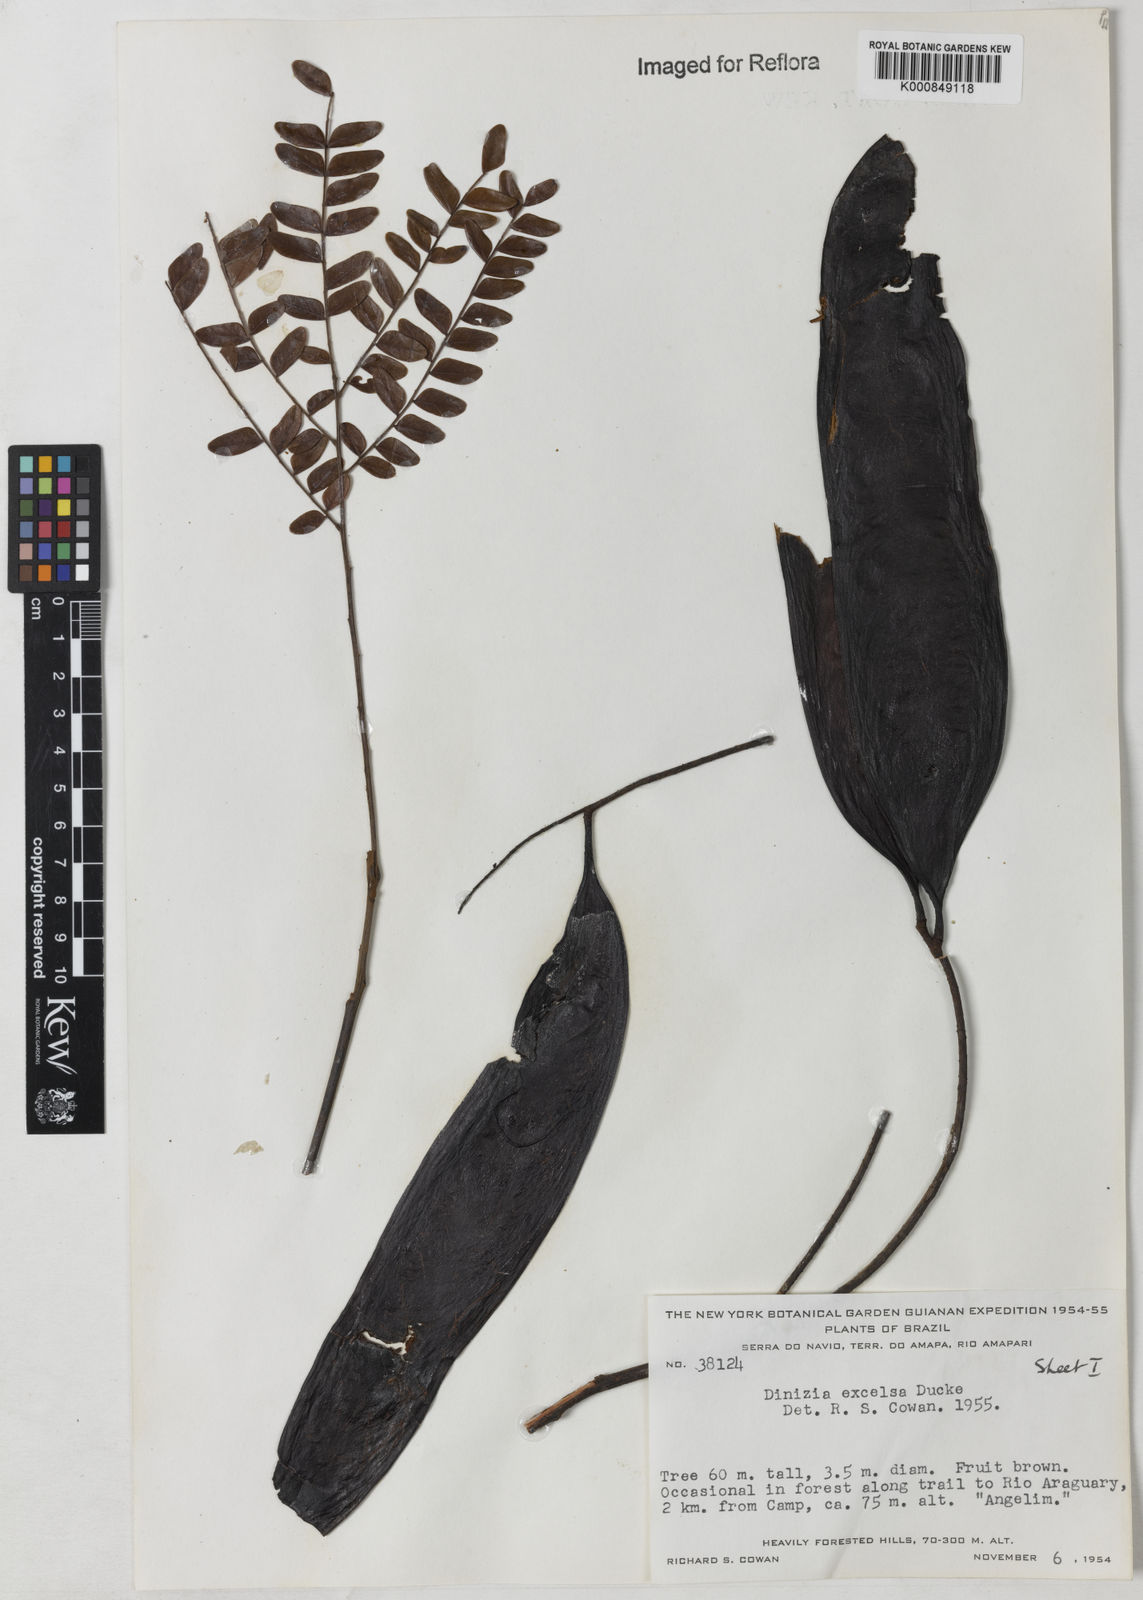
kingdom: Plantae
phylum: Tracheophyta
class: Magnoliopsida
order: Fabales
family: Fabaceae
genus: Dinizia
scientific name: Dinizia excelsa
